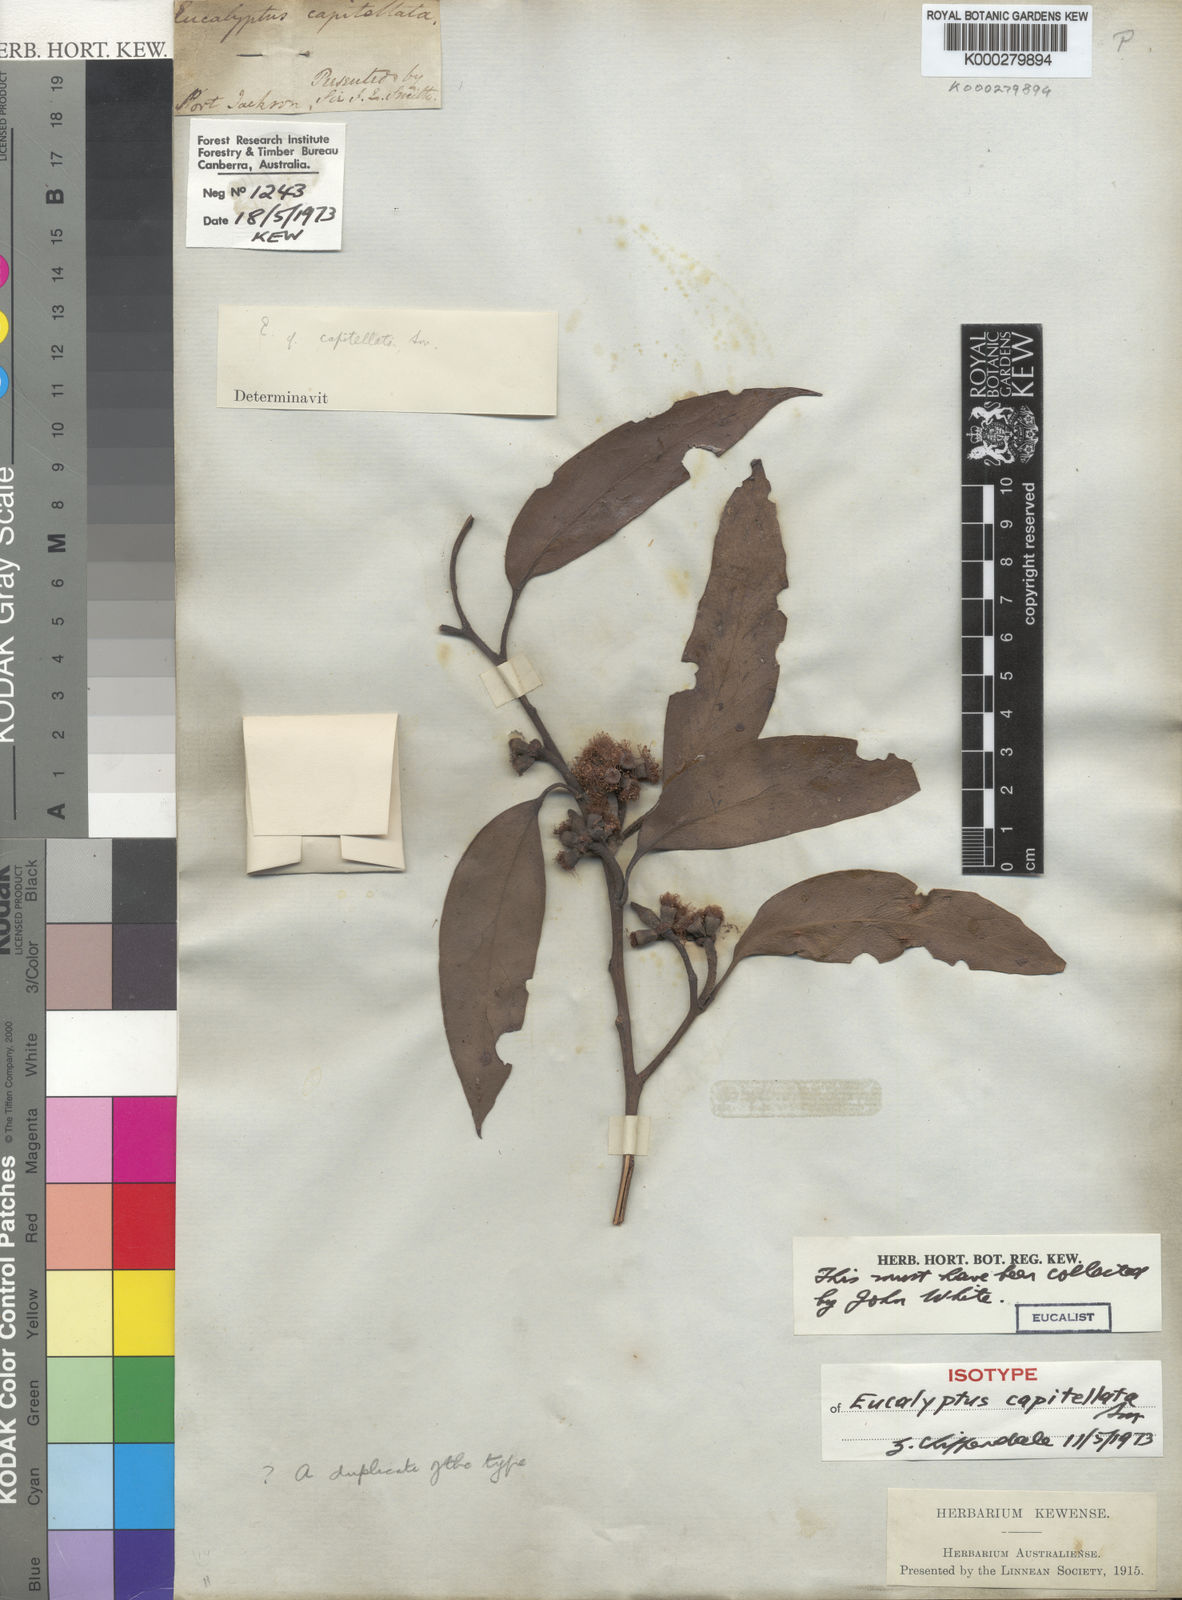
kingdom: Plantae
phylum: Tracheophyta
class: Magnoliopsida
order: Myrtales
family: Myrtaceae
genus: Eucalyptus
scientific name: Eucalyptus capitellata
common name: Brown-stringy-bark
